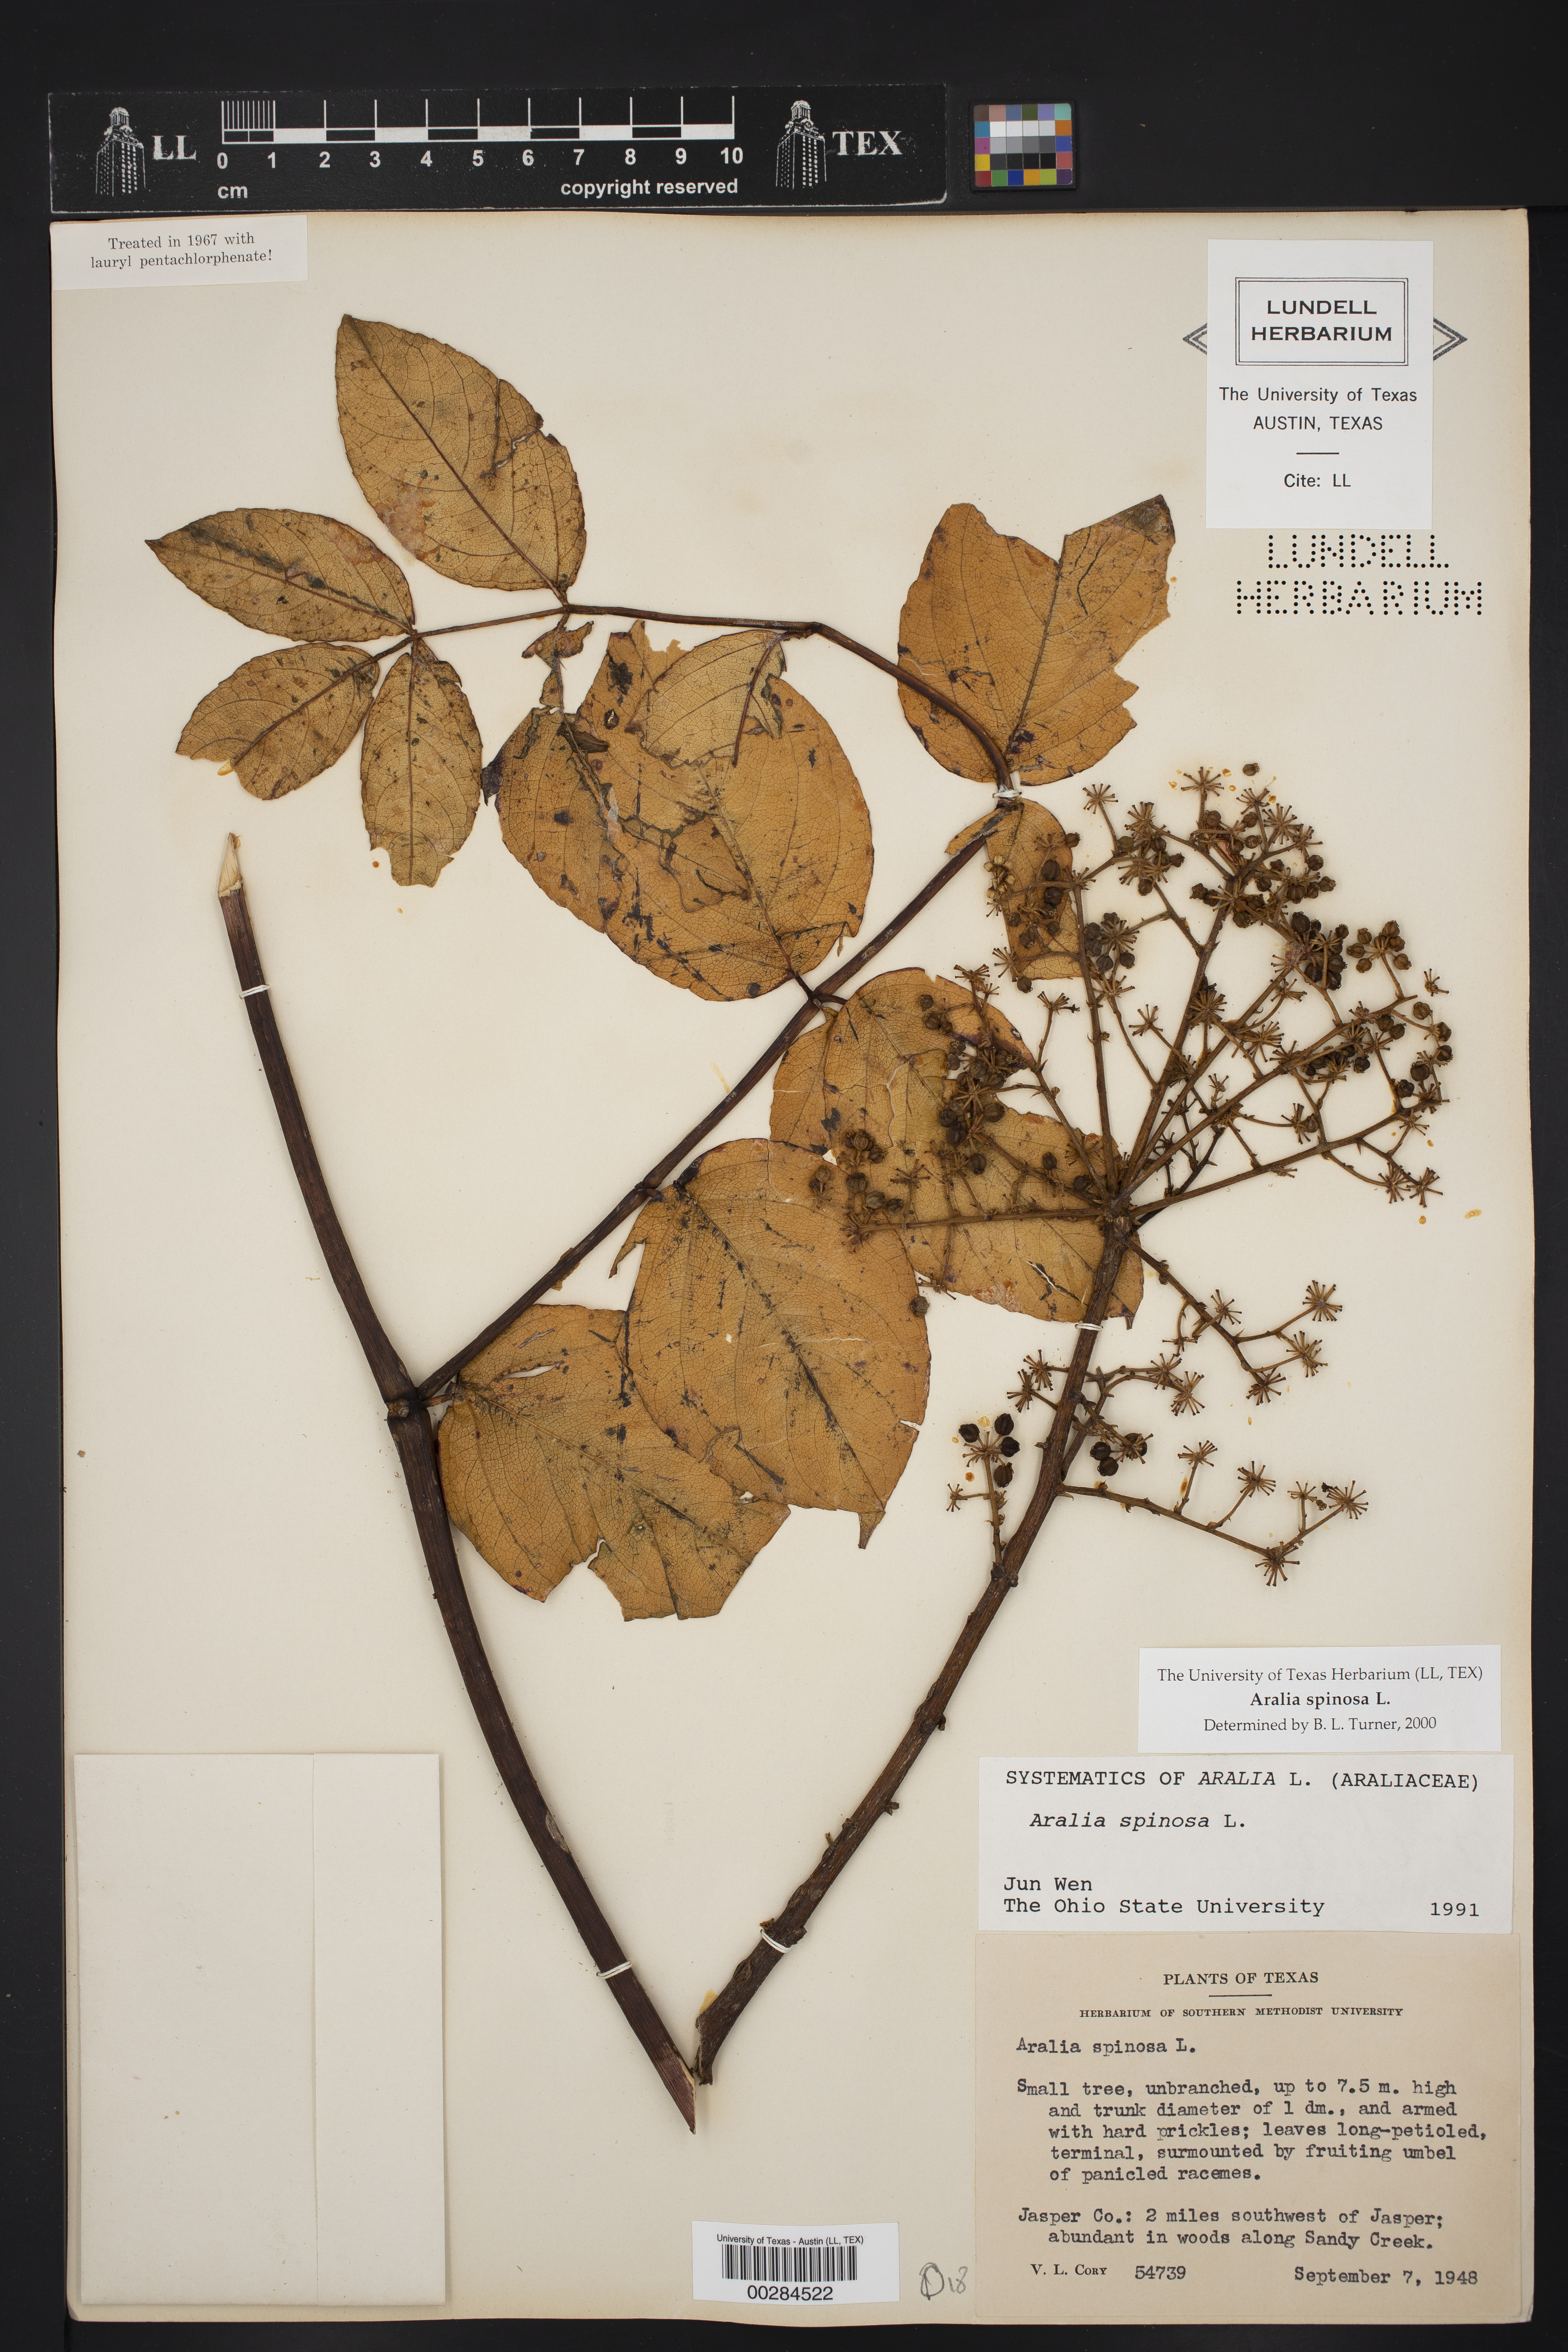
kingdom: Plantae
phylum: Tracheophyta
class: Magnoliopsida
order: Apiales
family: Araliaceae
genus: Aralia
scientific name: Aralia spinosa
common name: Hercules'-club
